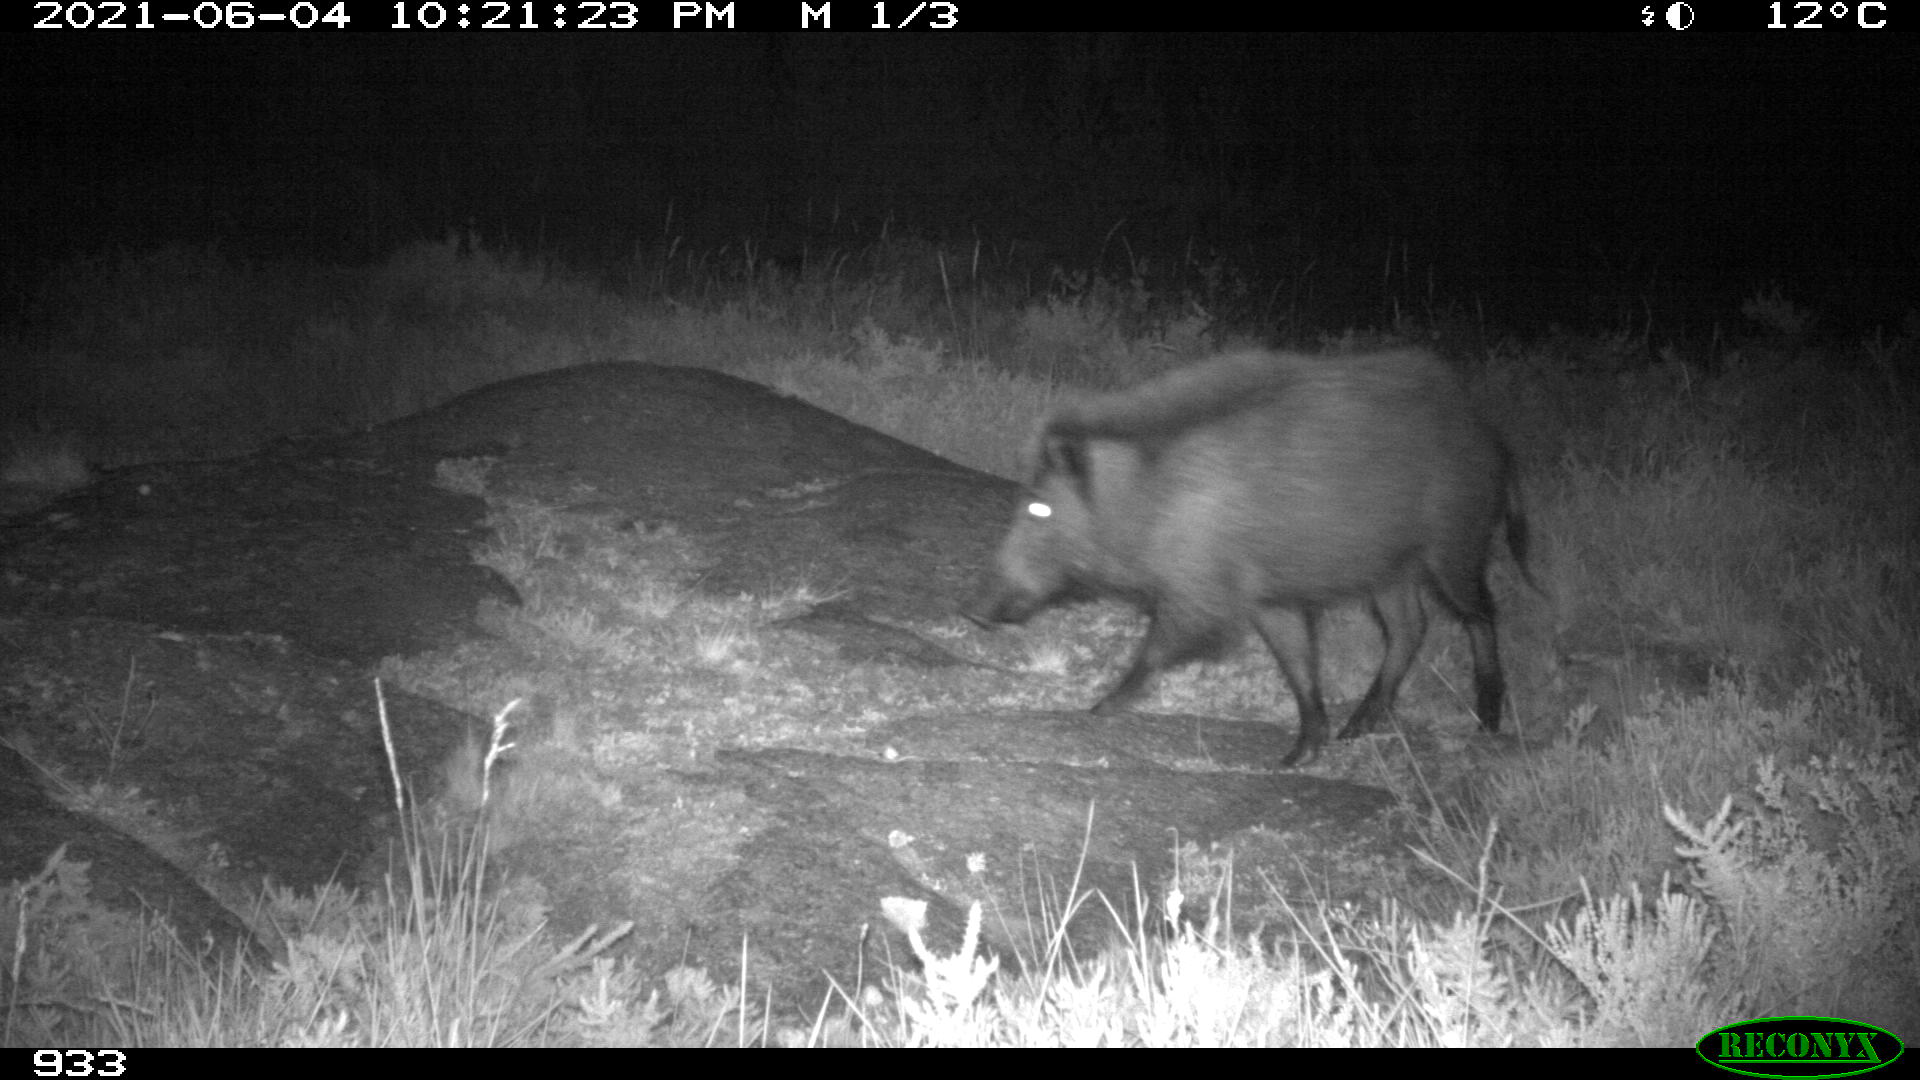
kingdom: Animalia
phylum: Chordata
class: Mammalia
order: Artiodactyla
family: Suidae
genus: Sus
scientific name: Sus scrofa
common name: Wild boar
